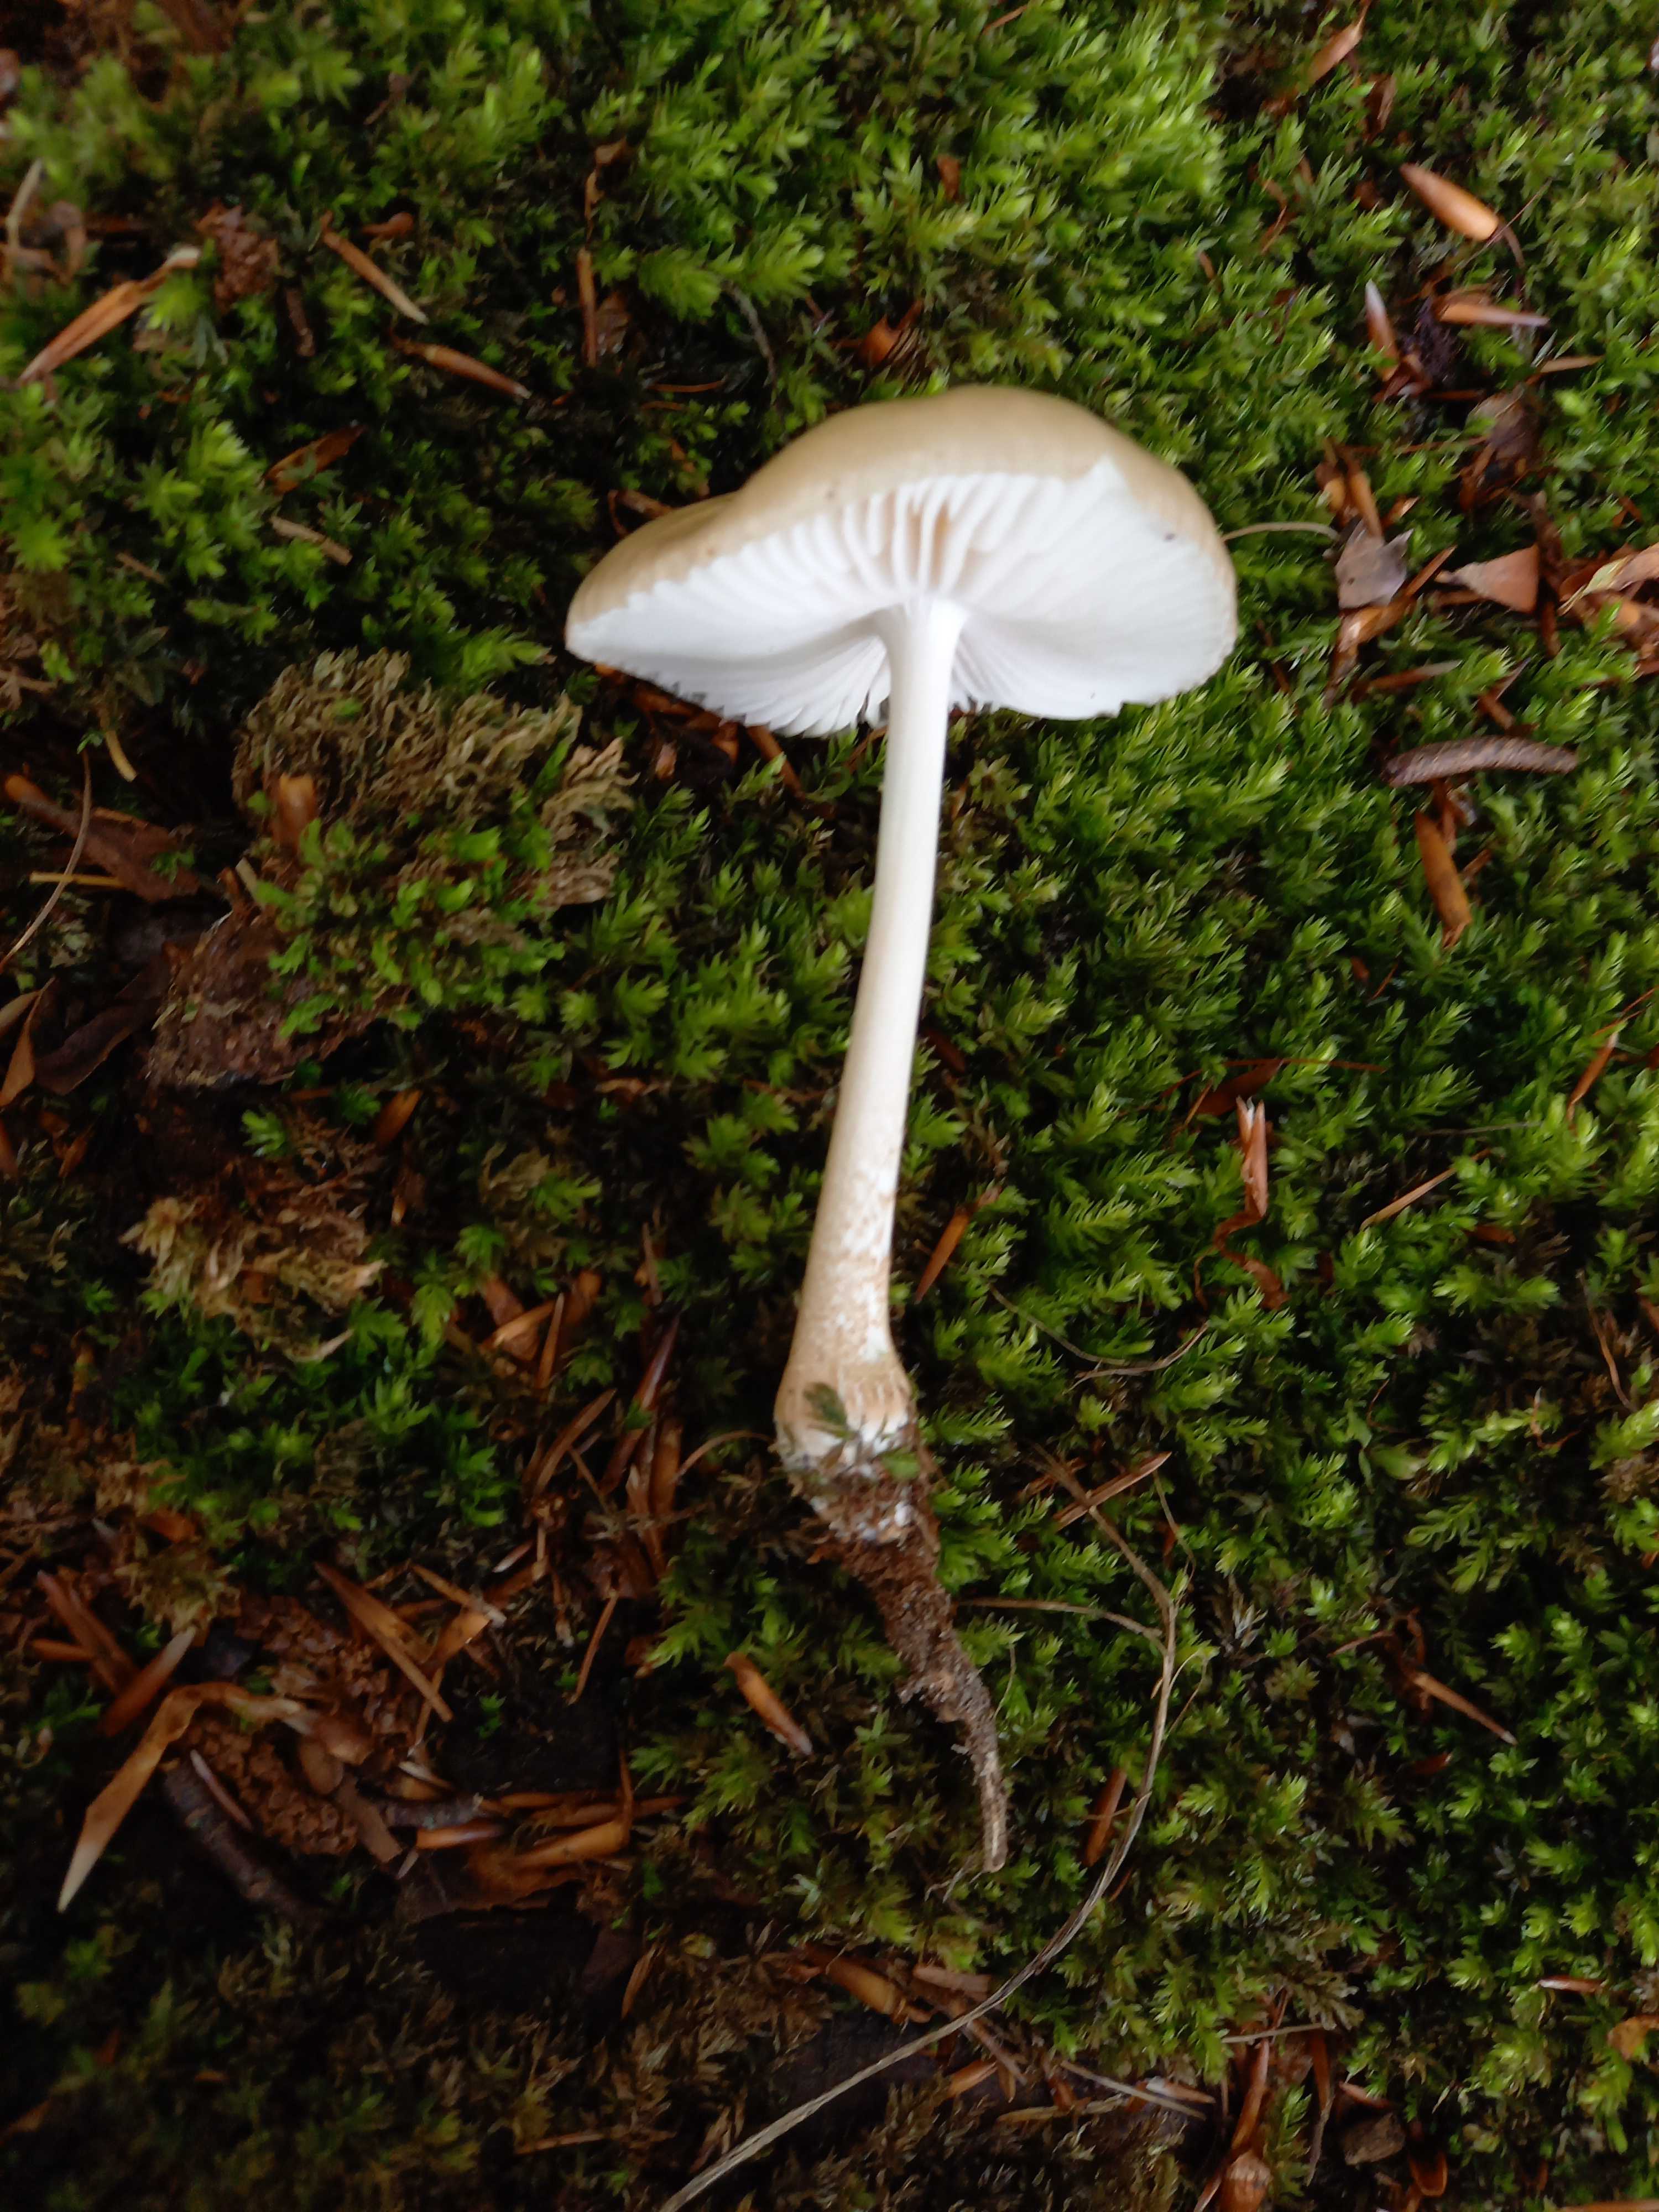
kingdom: Fungi
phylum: Basidiomycota
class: Agaricomycetes
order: Agaricales
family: Physalacriaceae
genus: Hymenopellis
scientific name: Hymenopellis radicata
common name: almindelig pælerodshat
